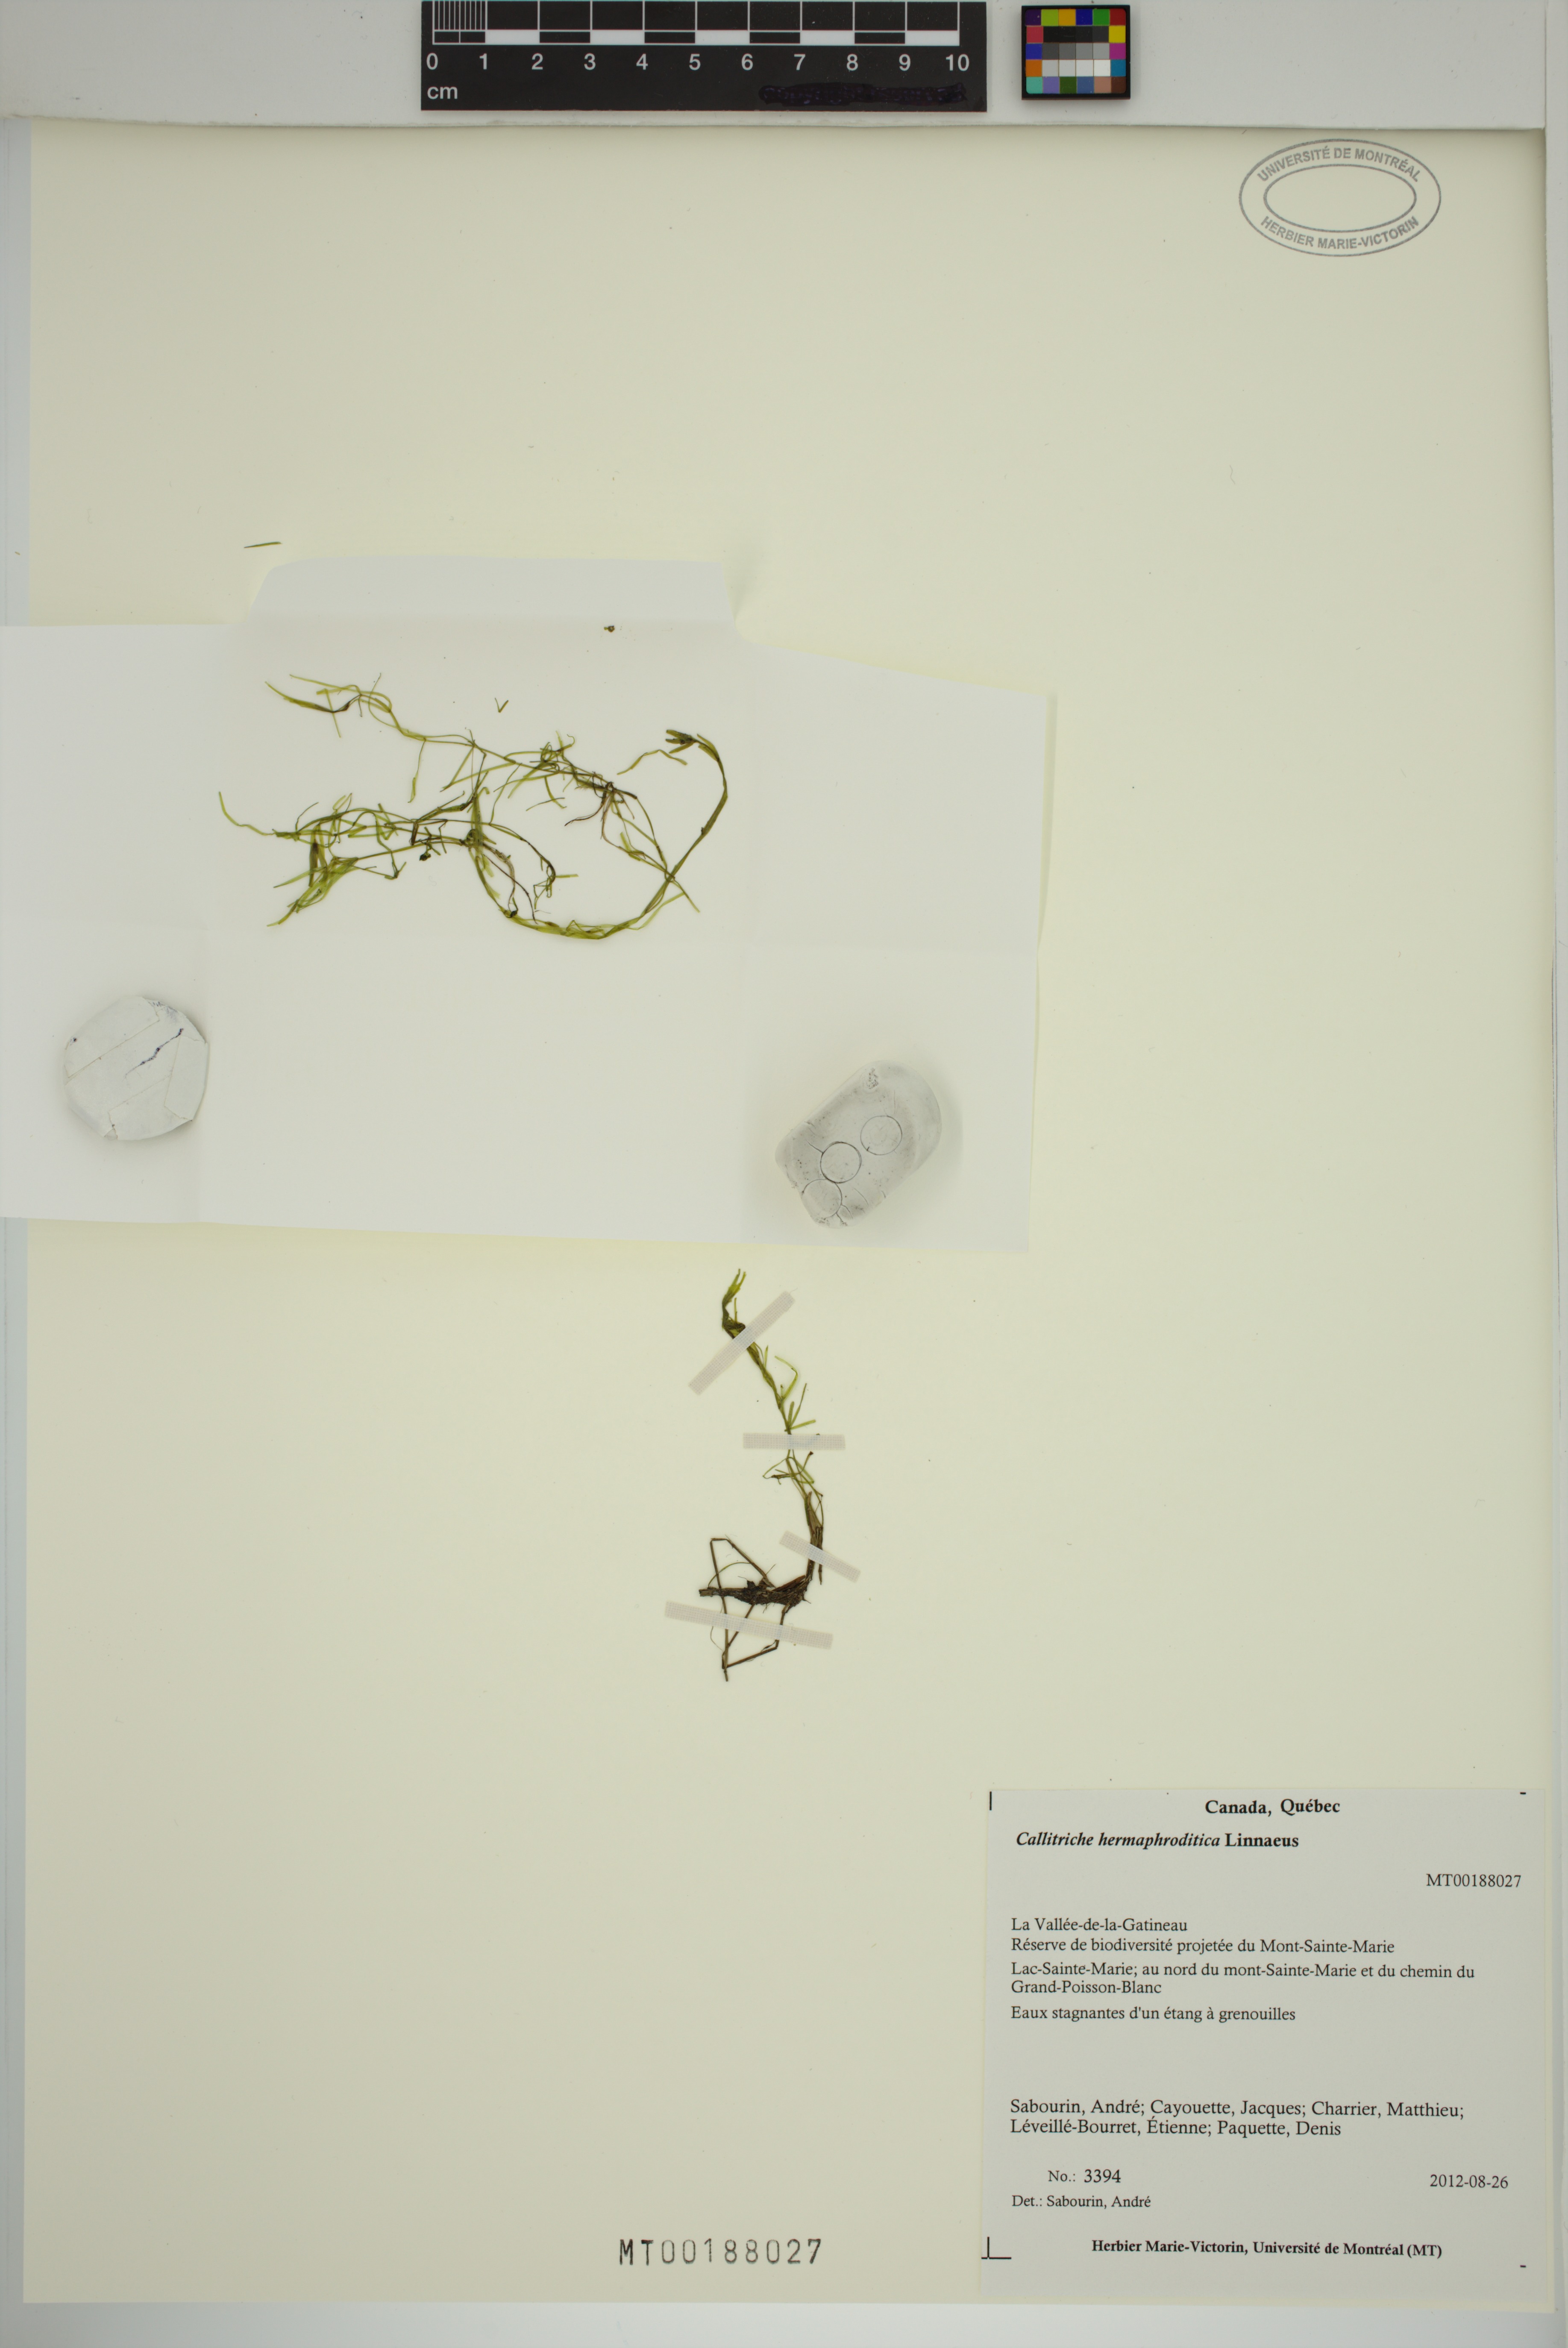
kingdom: Plantae
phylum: Tracheophyta
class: Magnoliopsida
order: Lamiales
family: Plantaginaceae
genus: Callitriche
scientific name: Callitriche hermaphroditica
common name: Autumnal water-starwort
